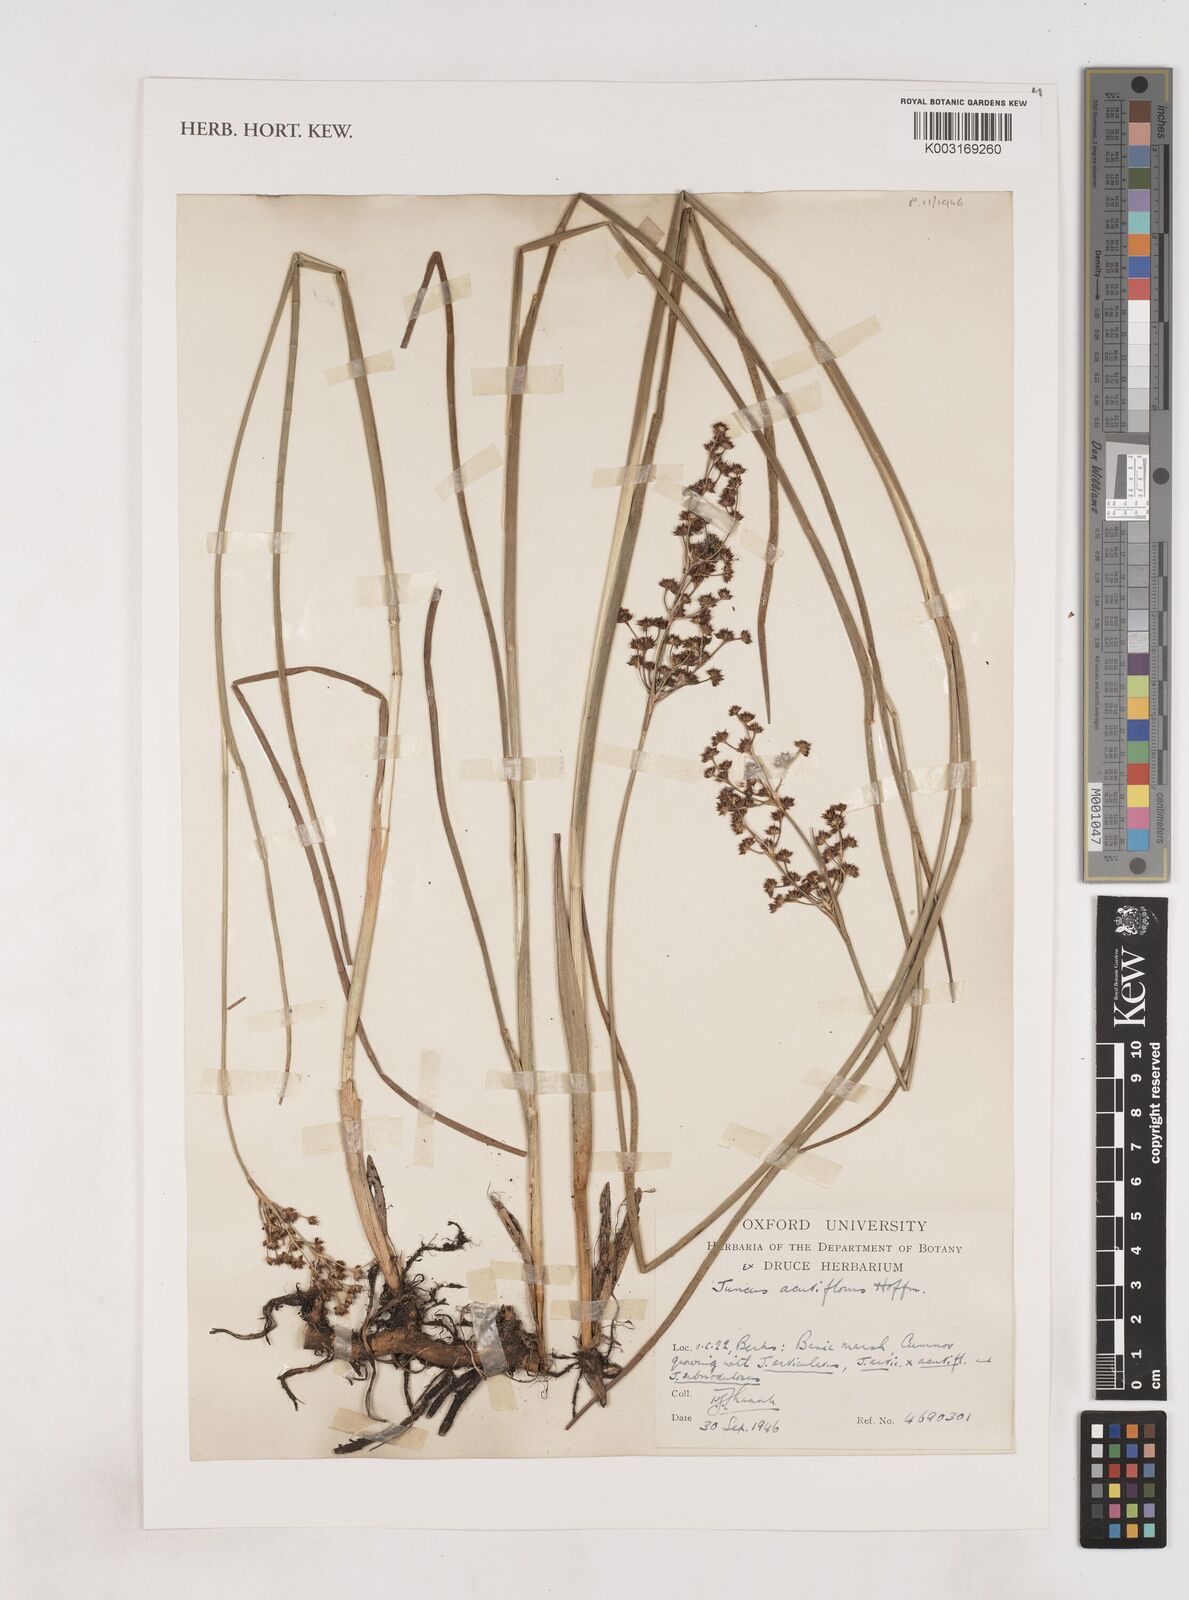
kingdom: Plantae
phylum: Tracheophyta
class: Liliopsida
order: Poales
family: Juncaceae
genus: Juncus
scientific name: Juncus acutiflorus
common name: Sharp-flowered rush
